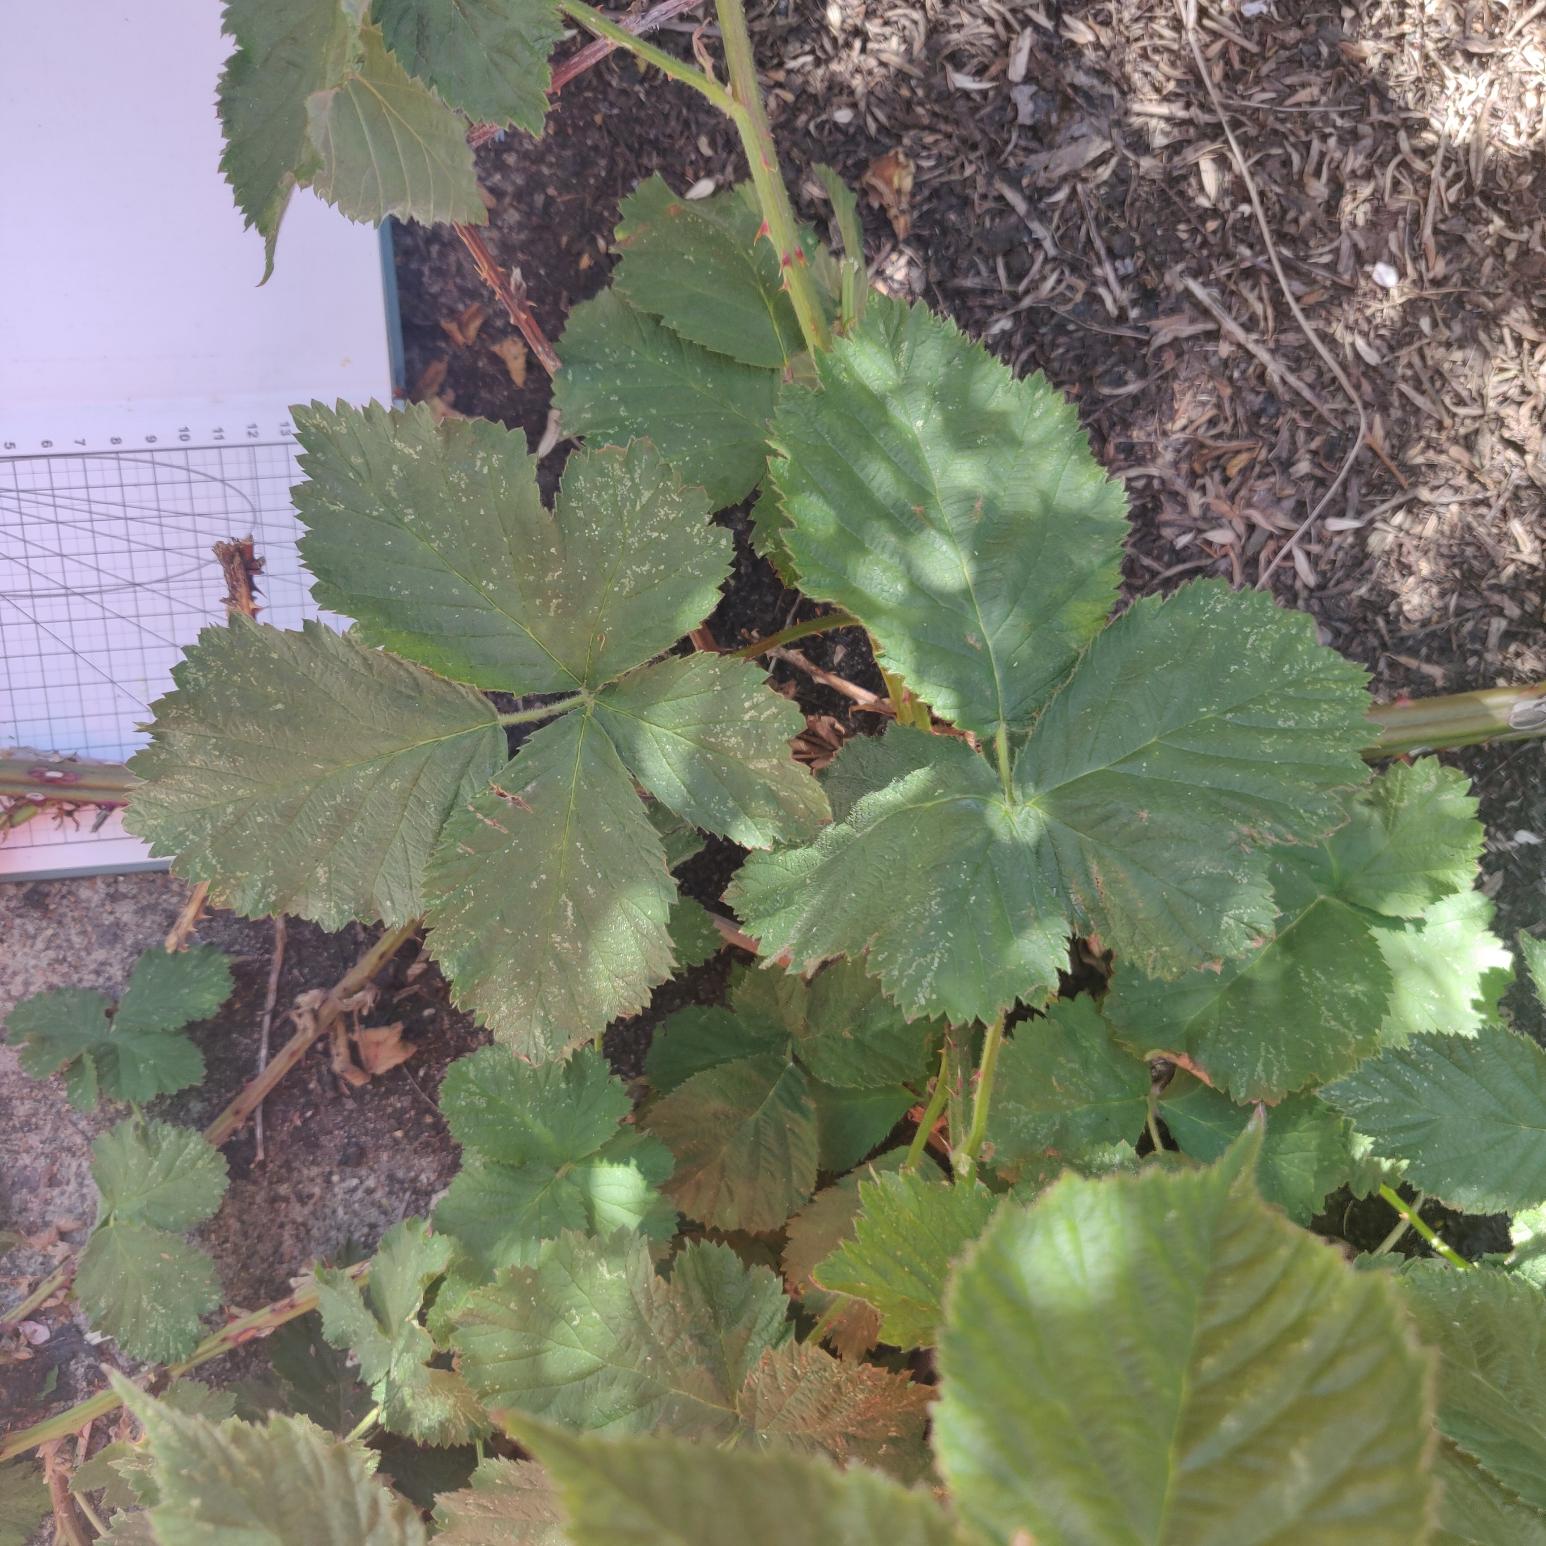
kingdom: Plantae
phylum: Tracheophyta
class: Magnoliopsida
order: Rosales
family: Rosaceae
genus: Rubus
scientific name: Rubus armeniacus
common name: Armensk brombær
